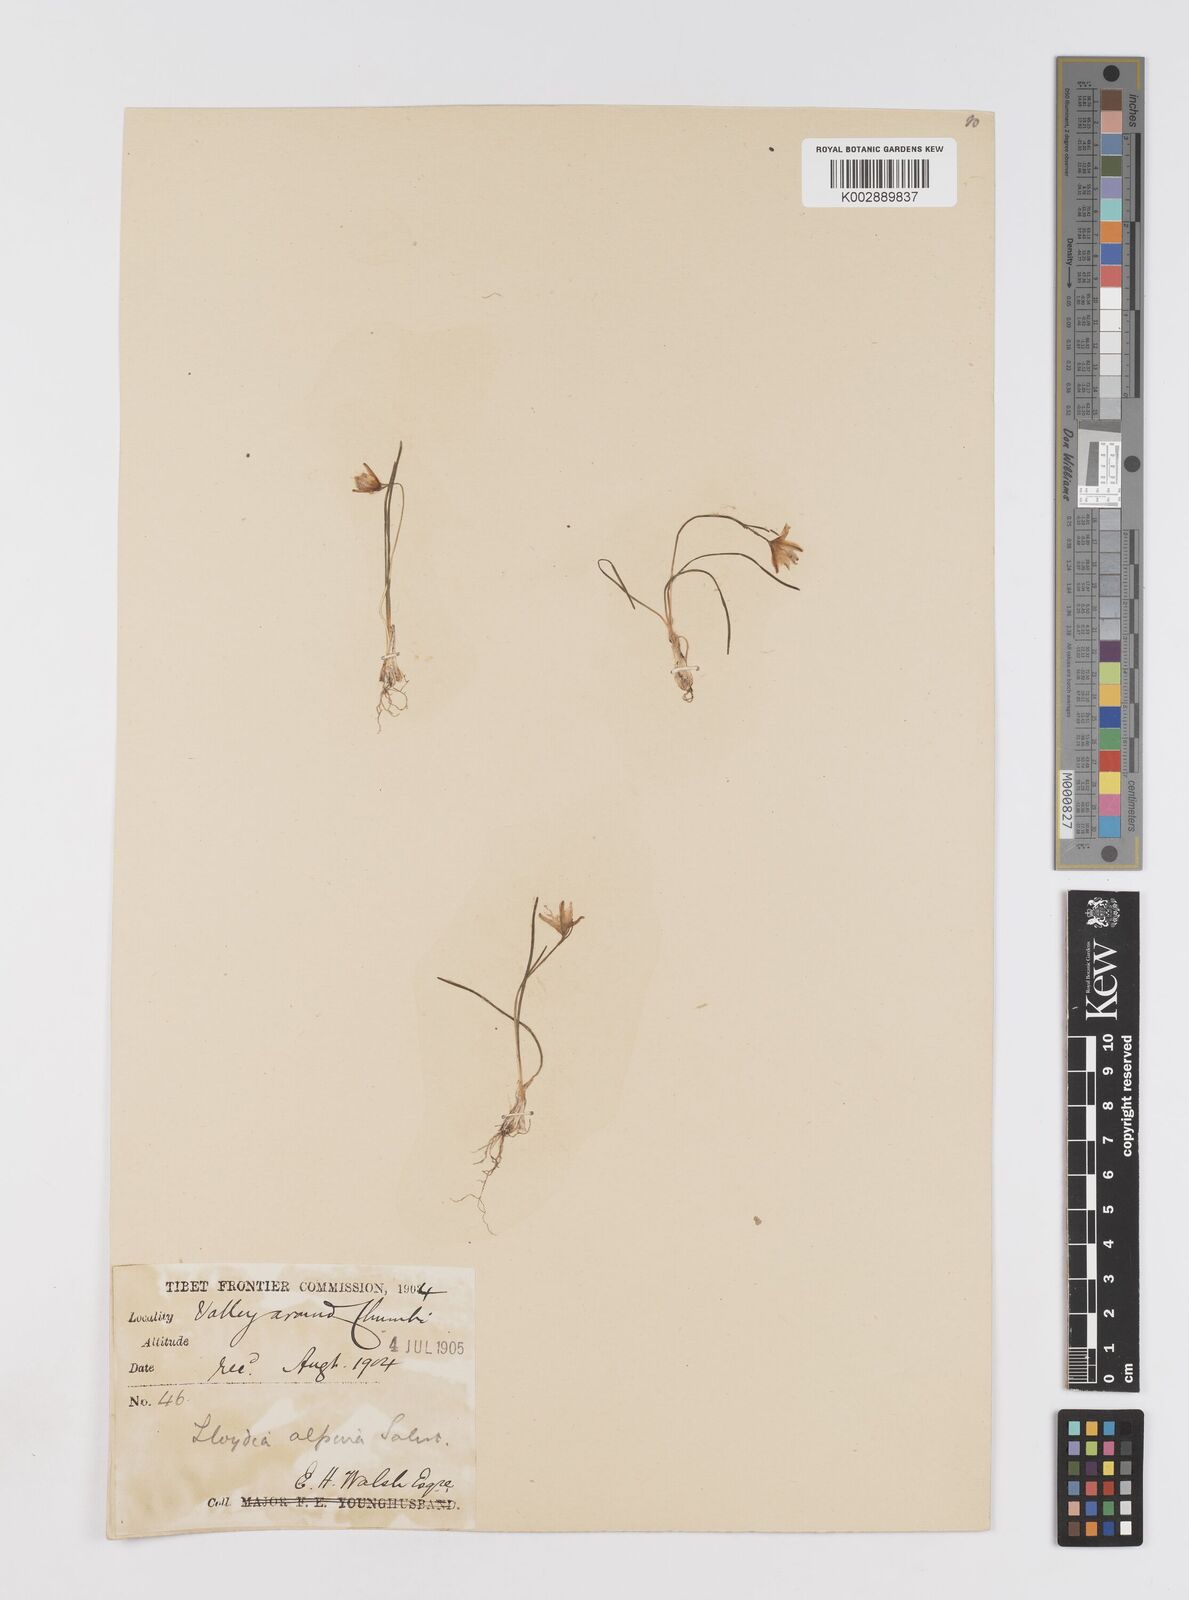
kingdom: Plantae
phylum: Tracheophyta
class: Liliopsida
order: Liliales
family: Liliaceae
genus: Gagea
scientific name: Gagea
